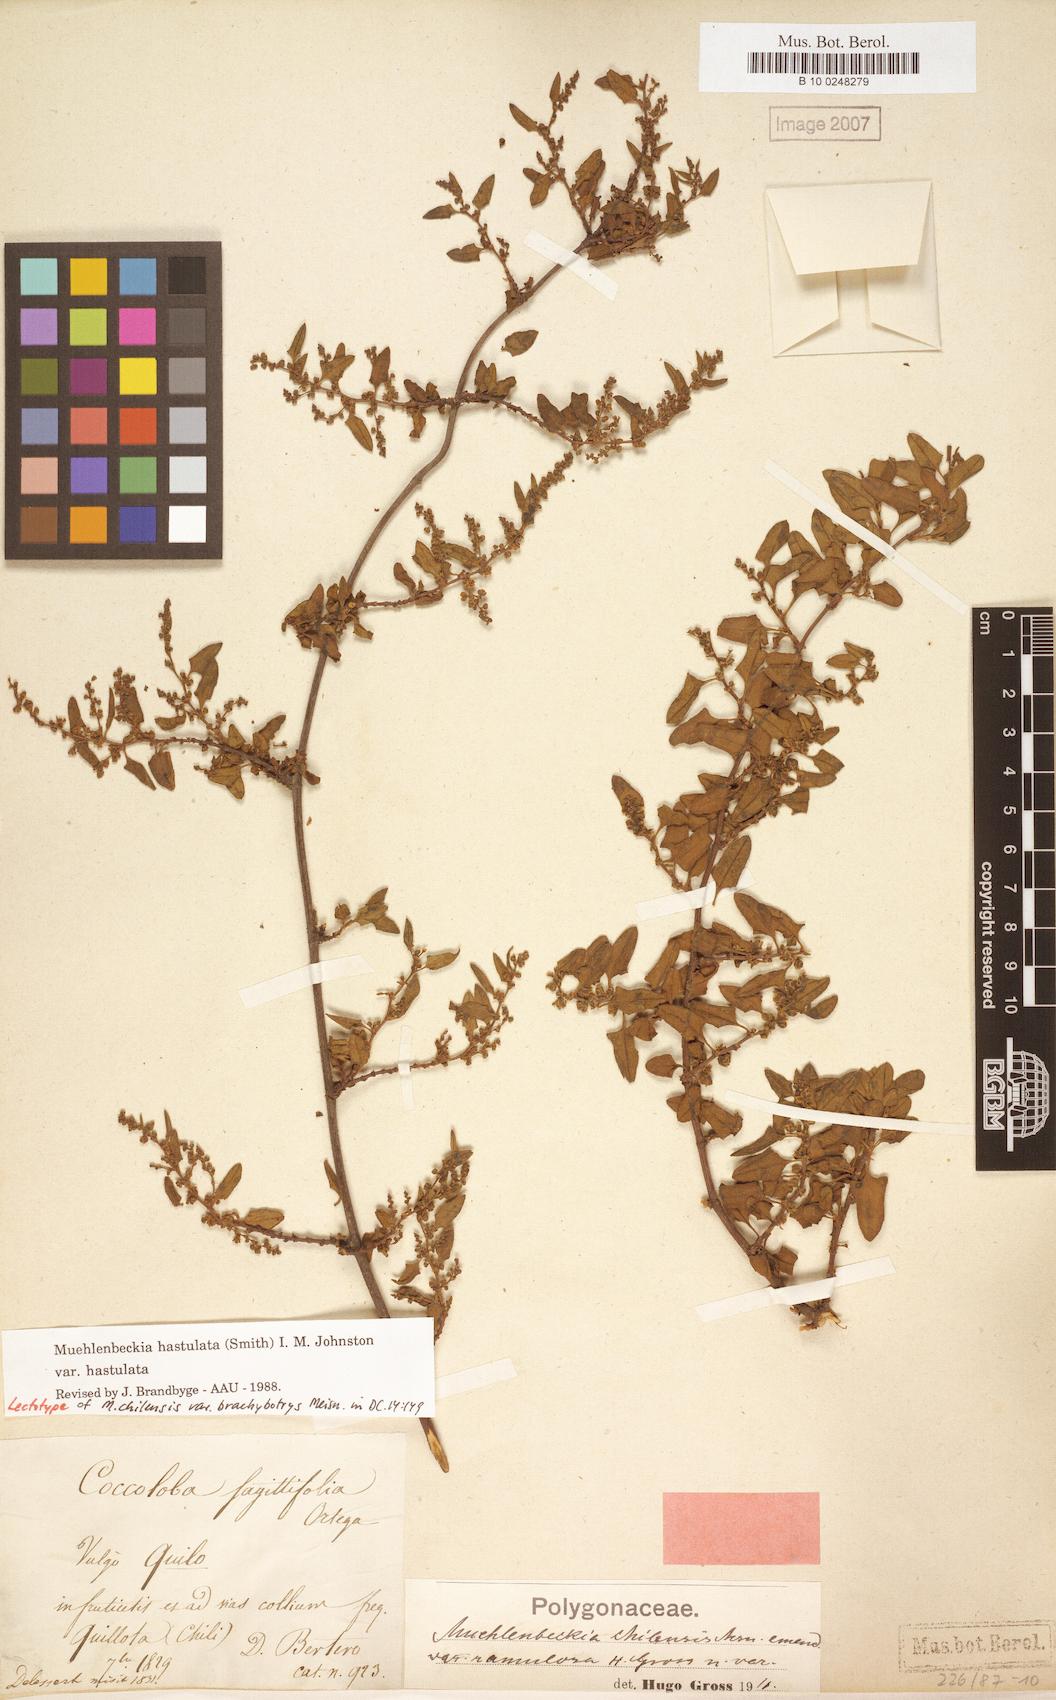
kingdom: Plantae
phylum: Tracheophyta
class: Magnoliopsida
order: Caryophyllales
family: Polygonaceae
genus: Muehlenbeckia
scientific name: Muehlenbeckia hastulata
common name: Wirevine
